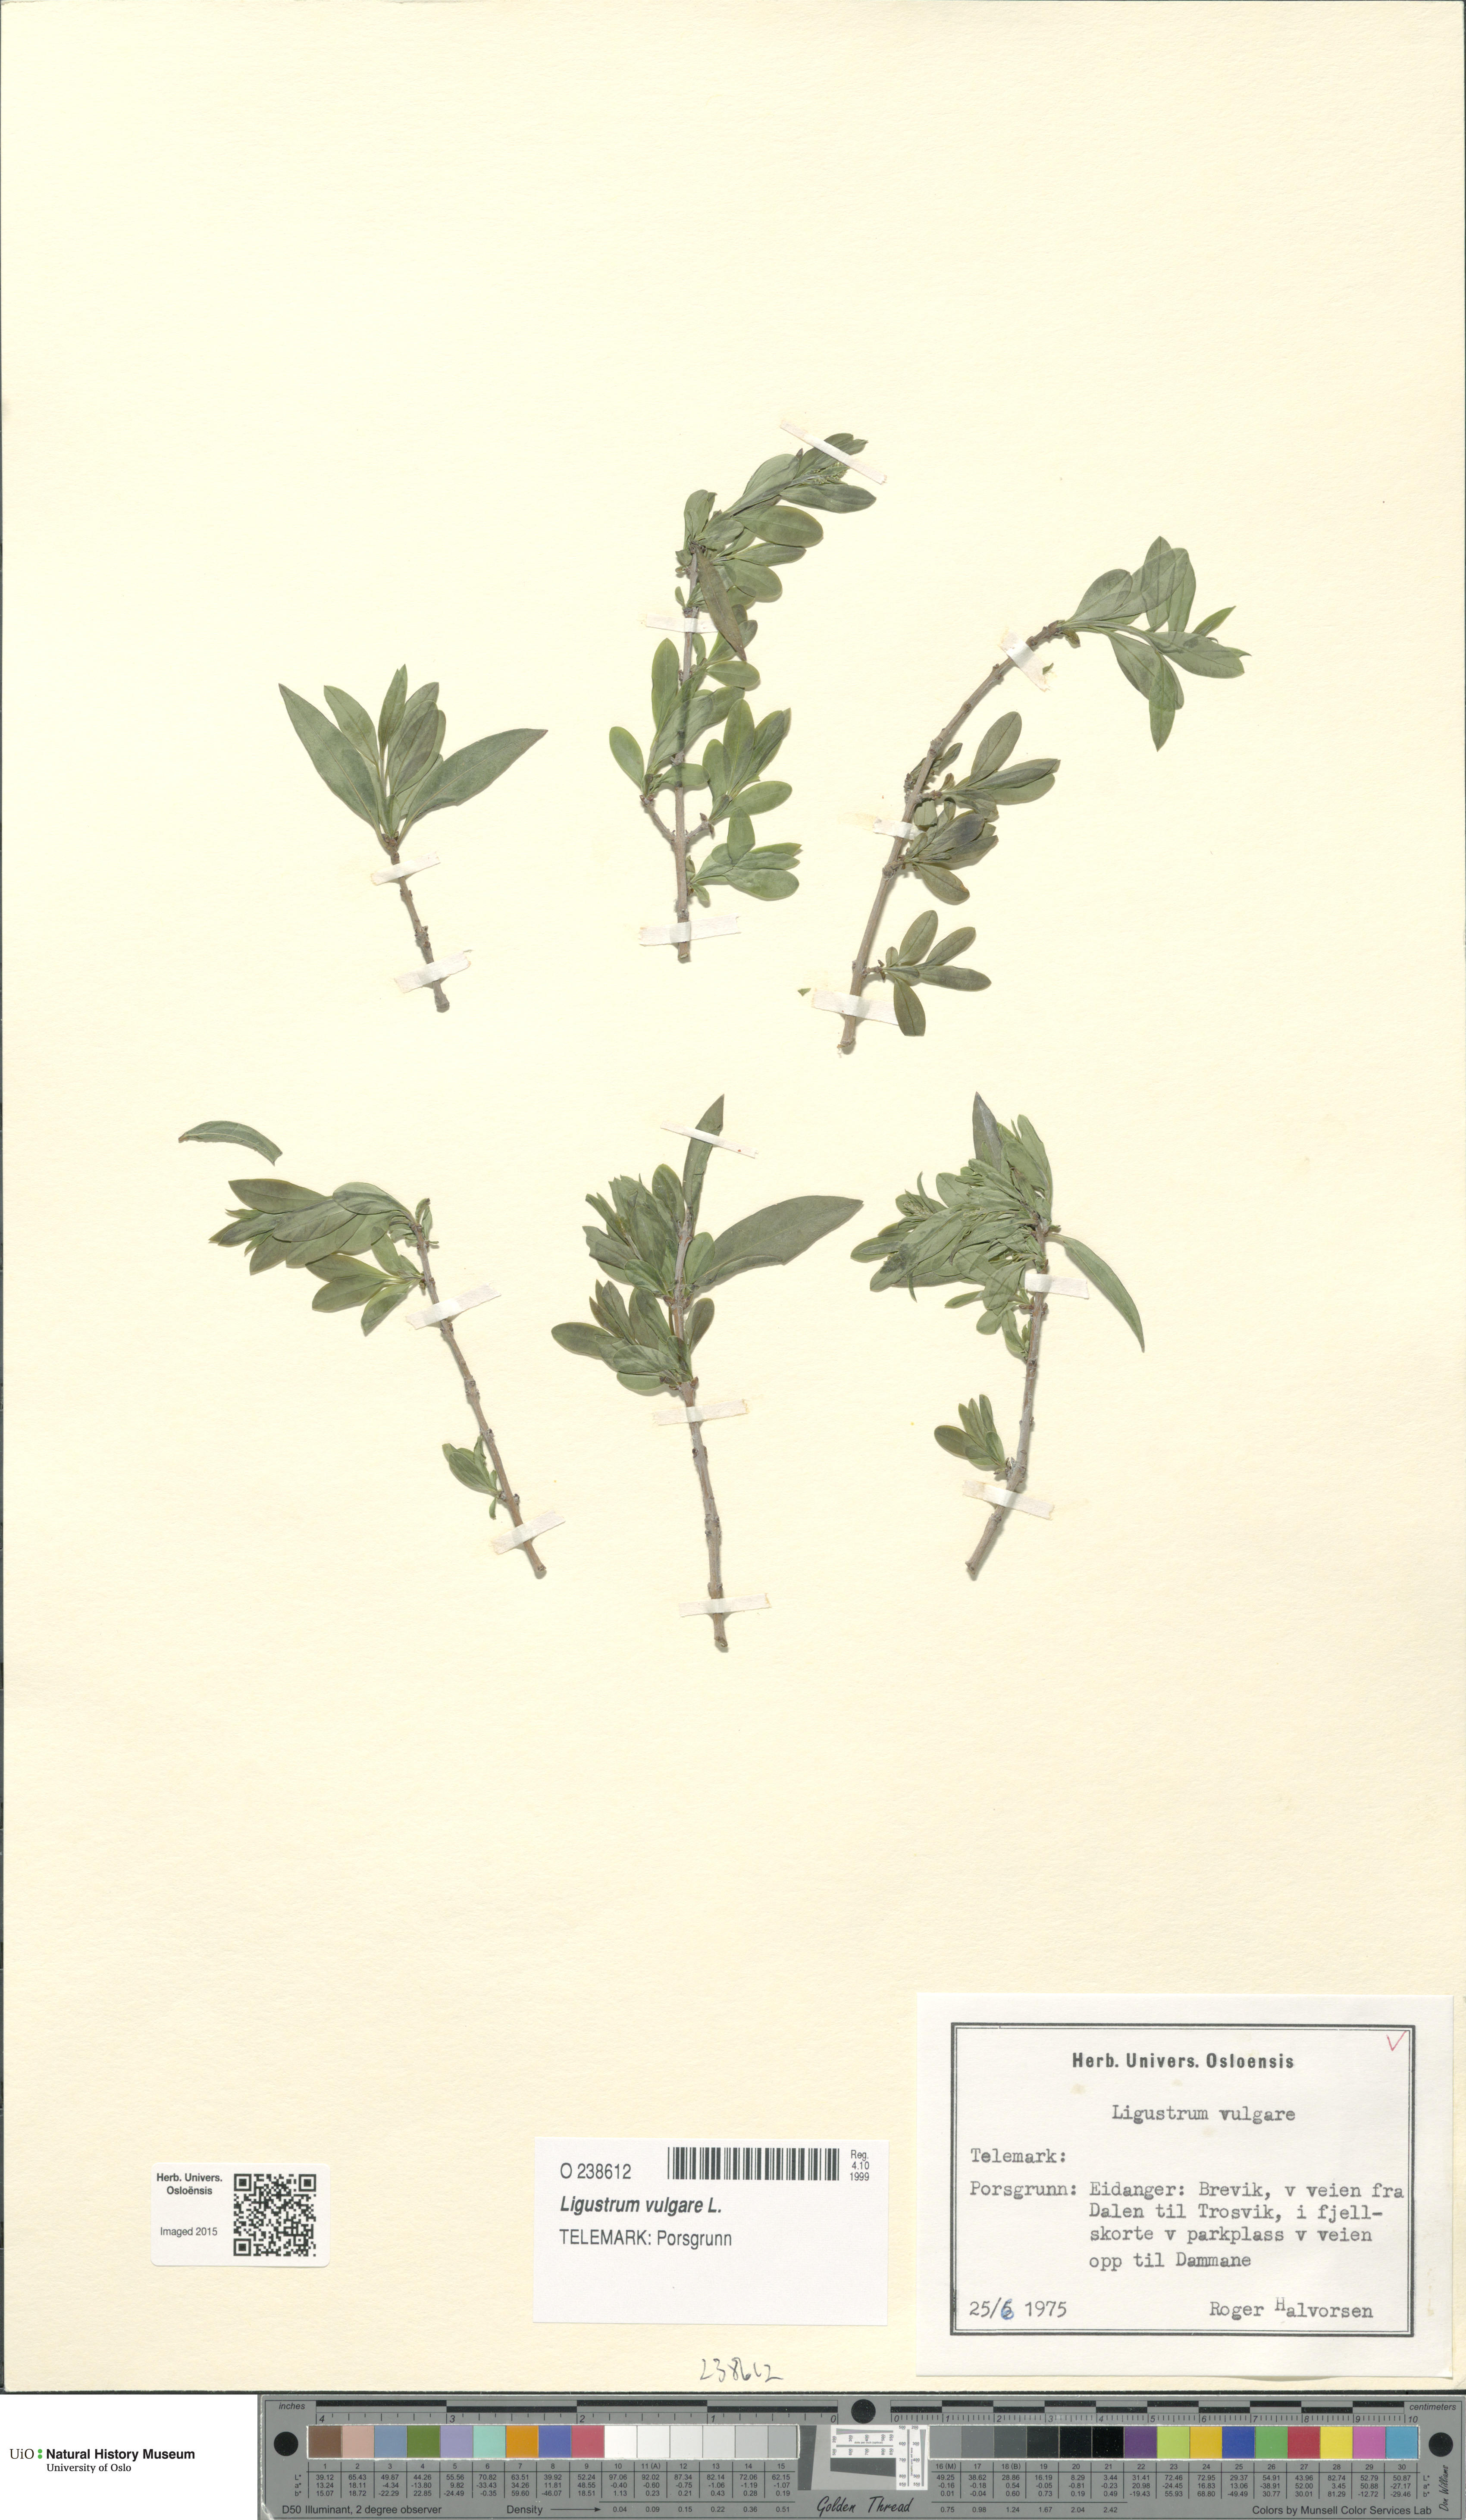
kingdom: Plantae
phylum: Tracheophyta
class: Magnoliopsida
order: Lamiales
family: Oleaceae
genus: Ligustrum
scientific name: Ligustrum vulgare
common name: Wild privet
